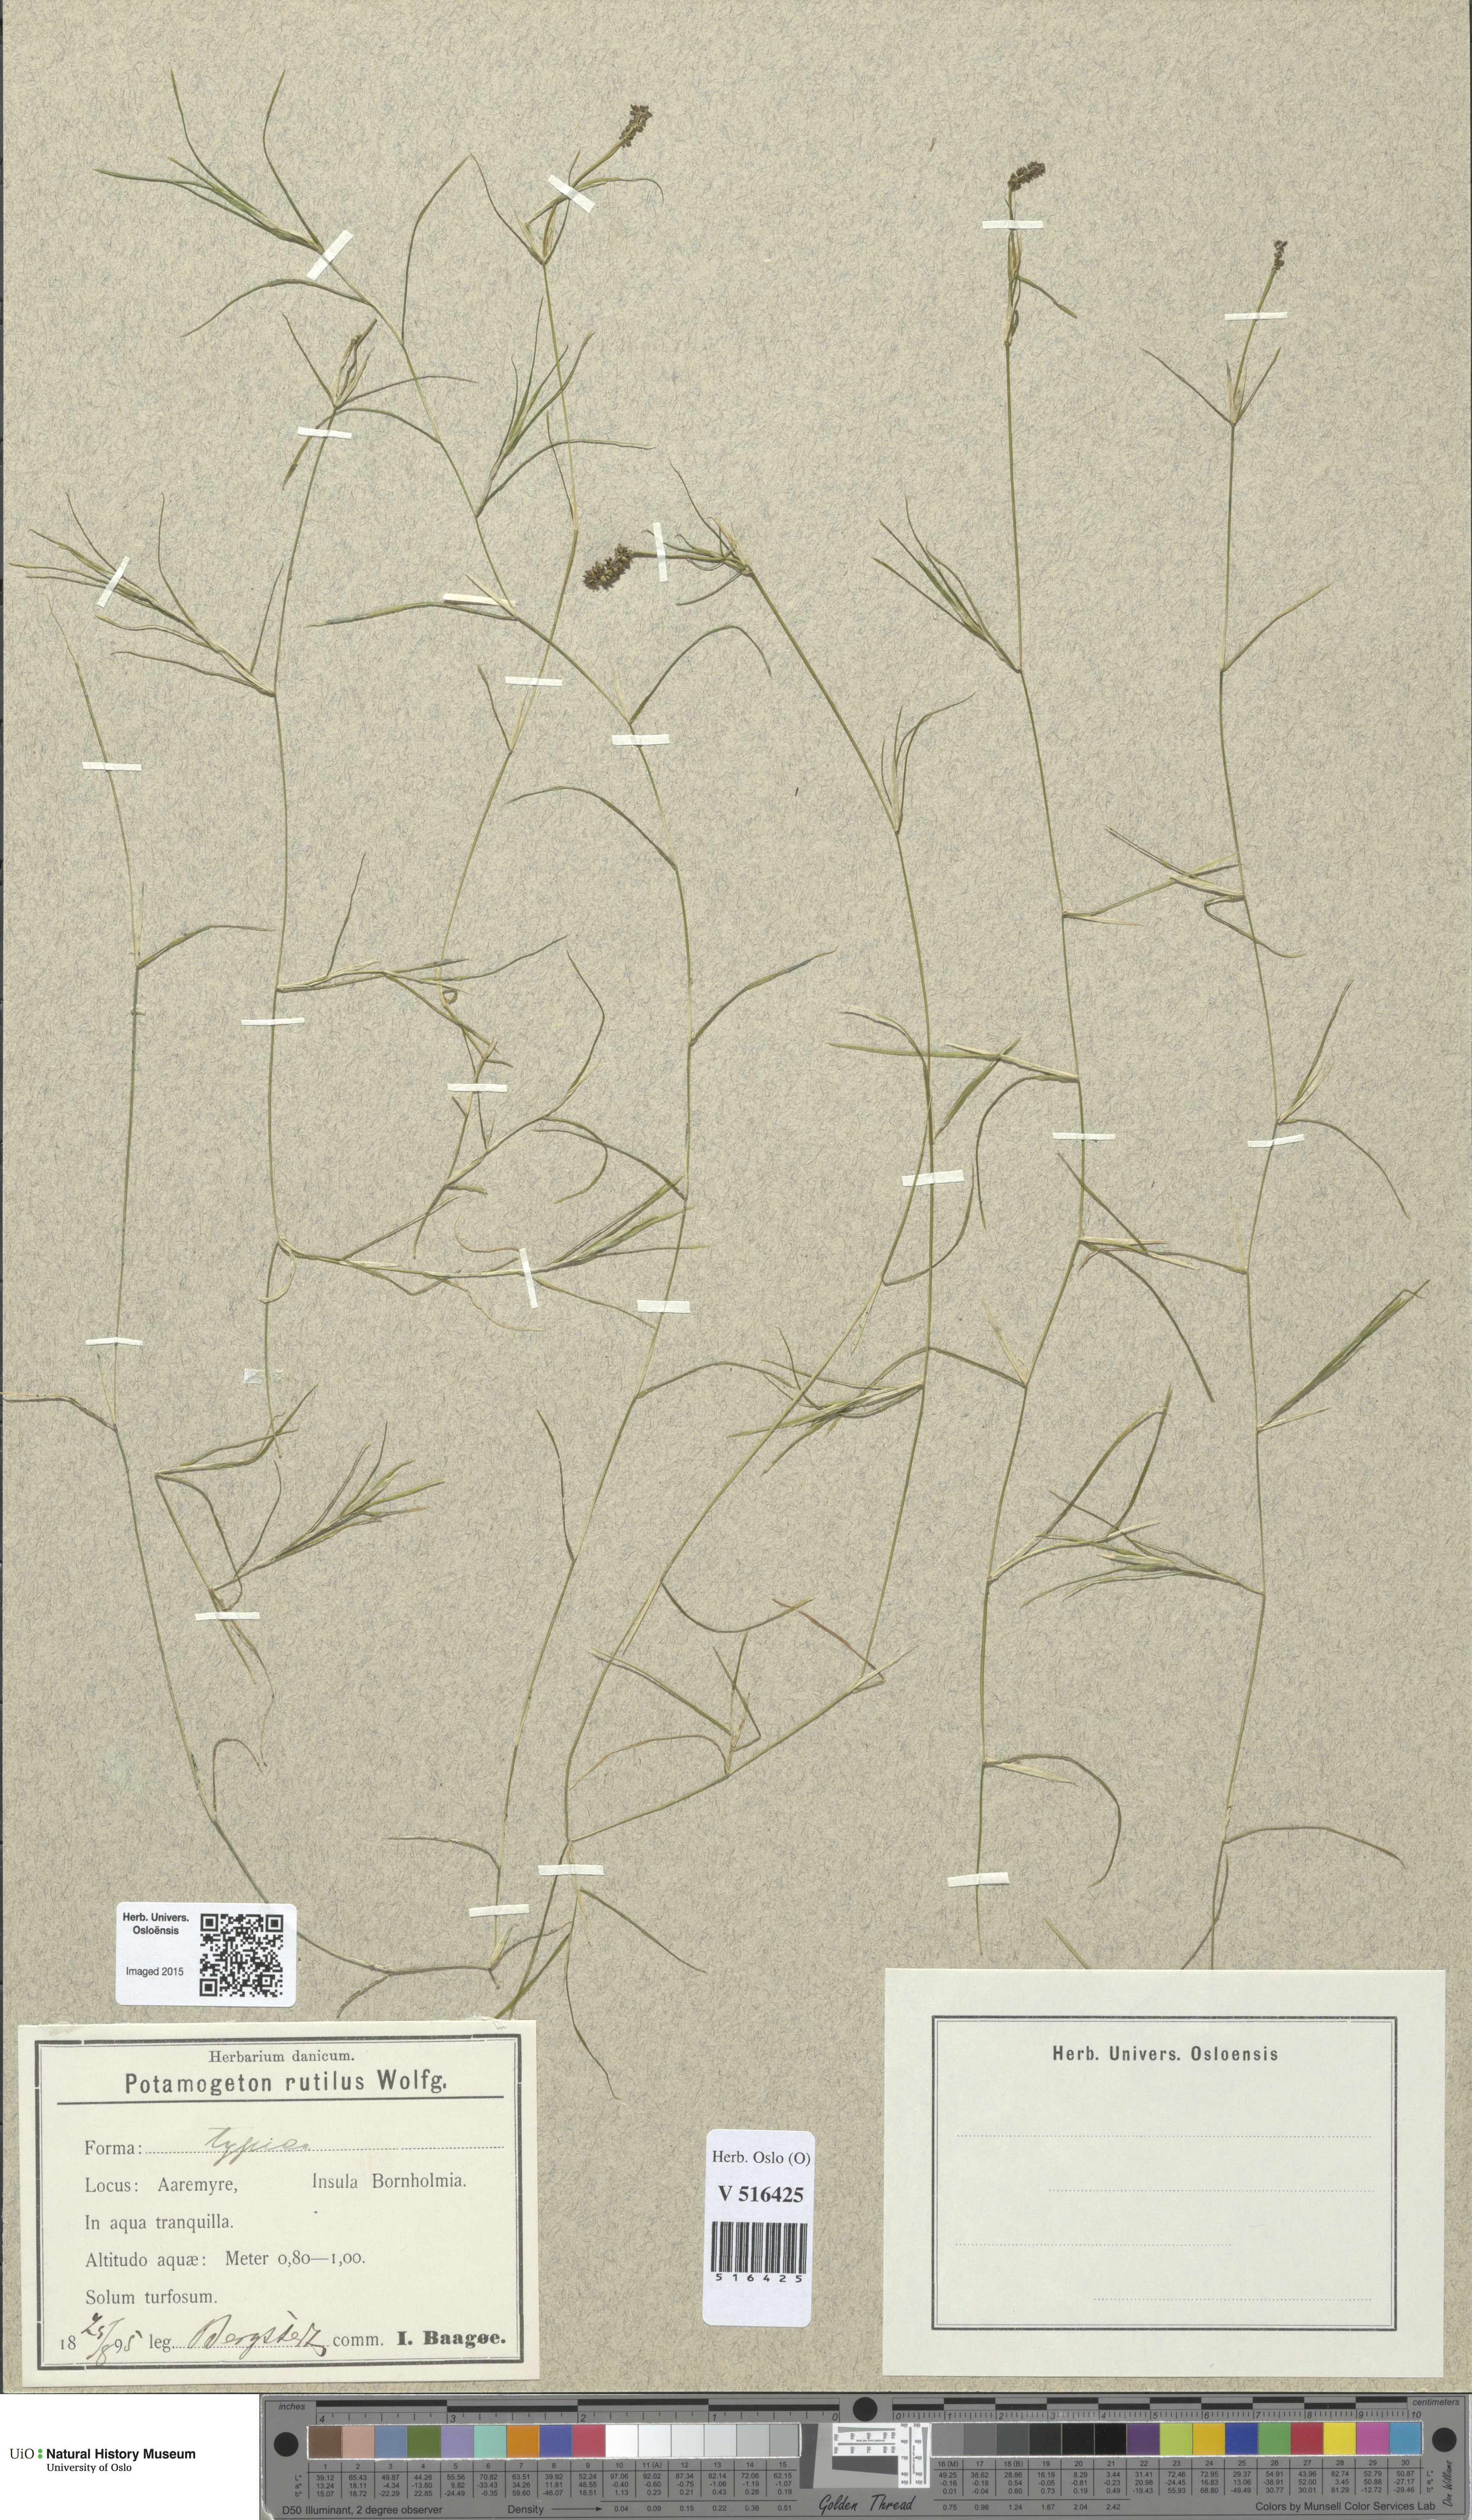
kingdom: Plantae
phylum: Tracheophyta
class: Liliopsida
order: Alismatales
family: Potamogetonaceae
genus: Potamogeton
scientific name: Potamogeton rutilus
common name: Shetland pondweed
